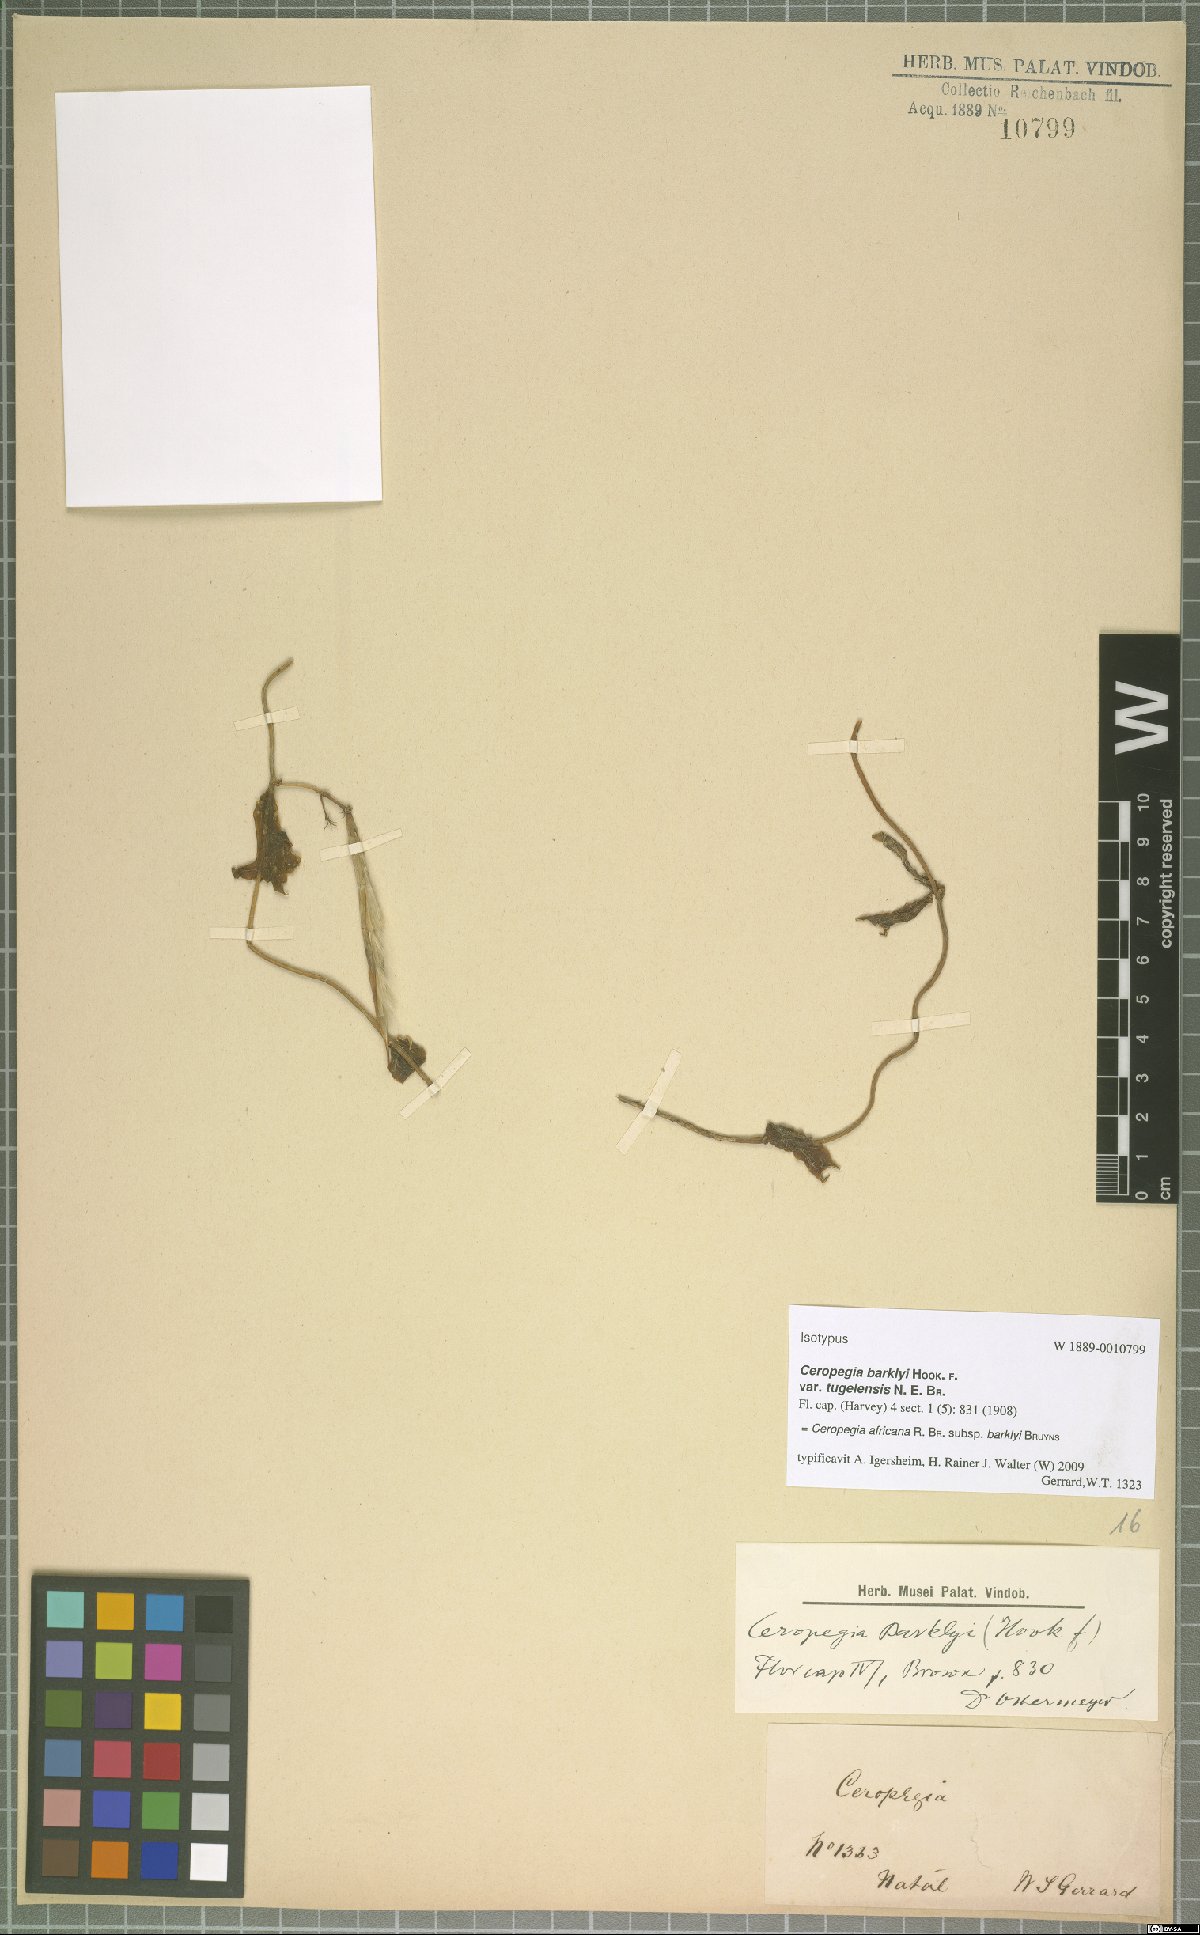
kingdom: Plantae
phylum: Tracheophyta
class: Magnoliopsida
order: Gentianales
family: Apocynaceae
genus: Ceropegia
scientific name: Ceropegia africana
